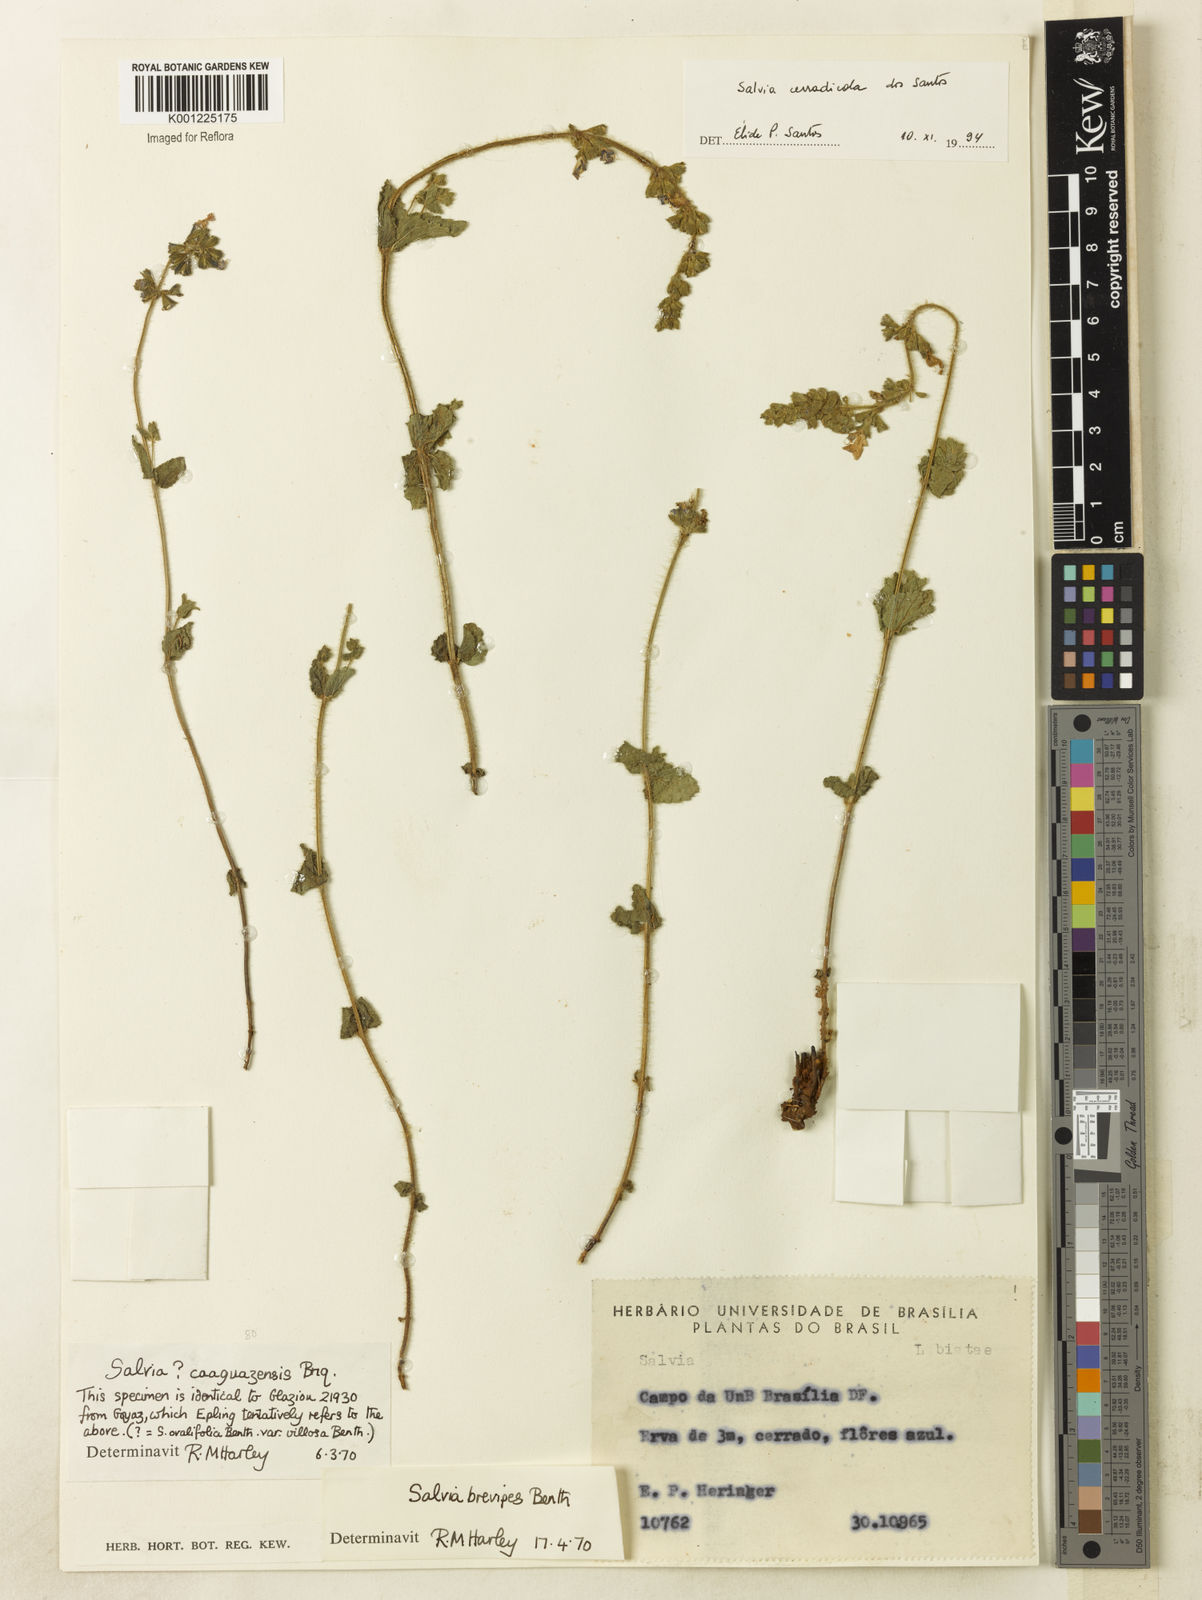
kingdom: Plantae
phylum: Tracheophyta
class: Magnoliopsida
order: Lamiales
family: Lamiaceae
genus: Salvia
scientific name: Salvia cerradicola
